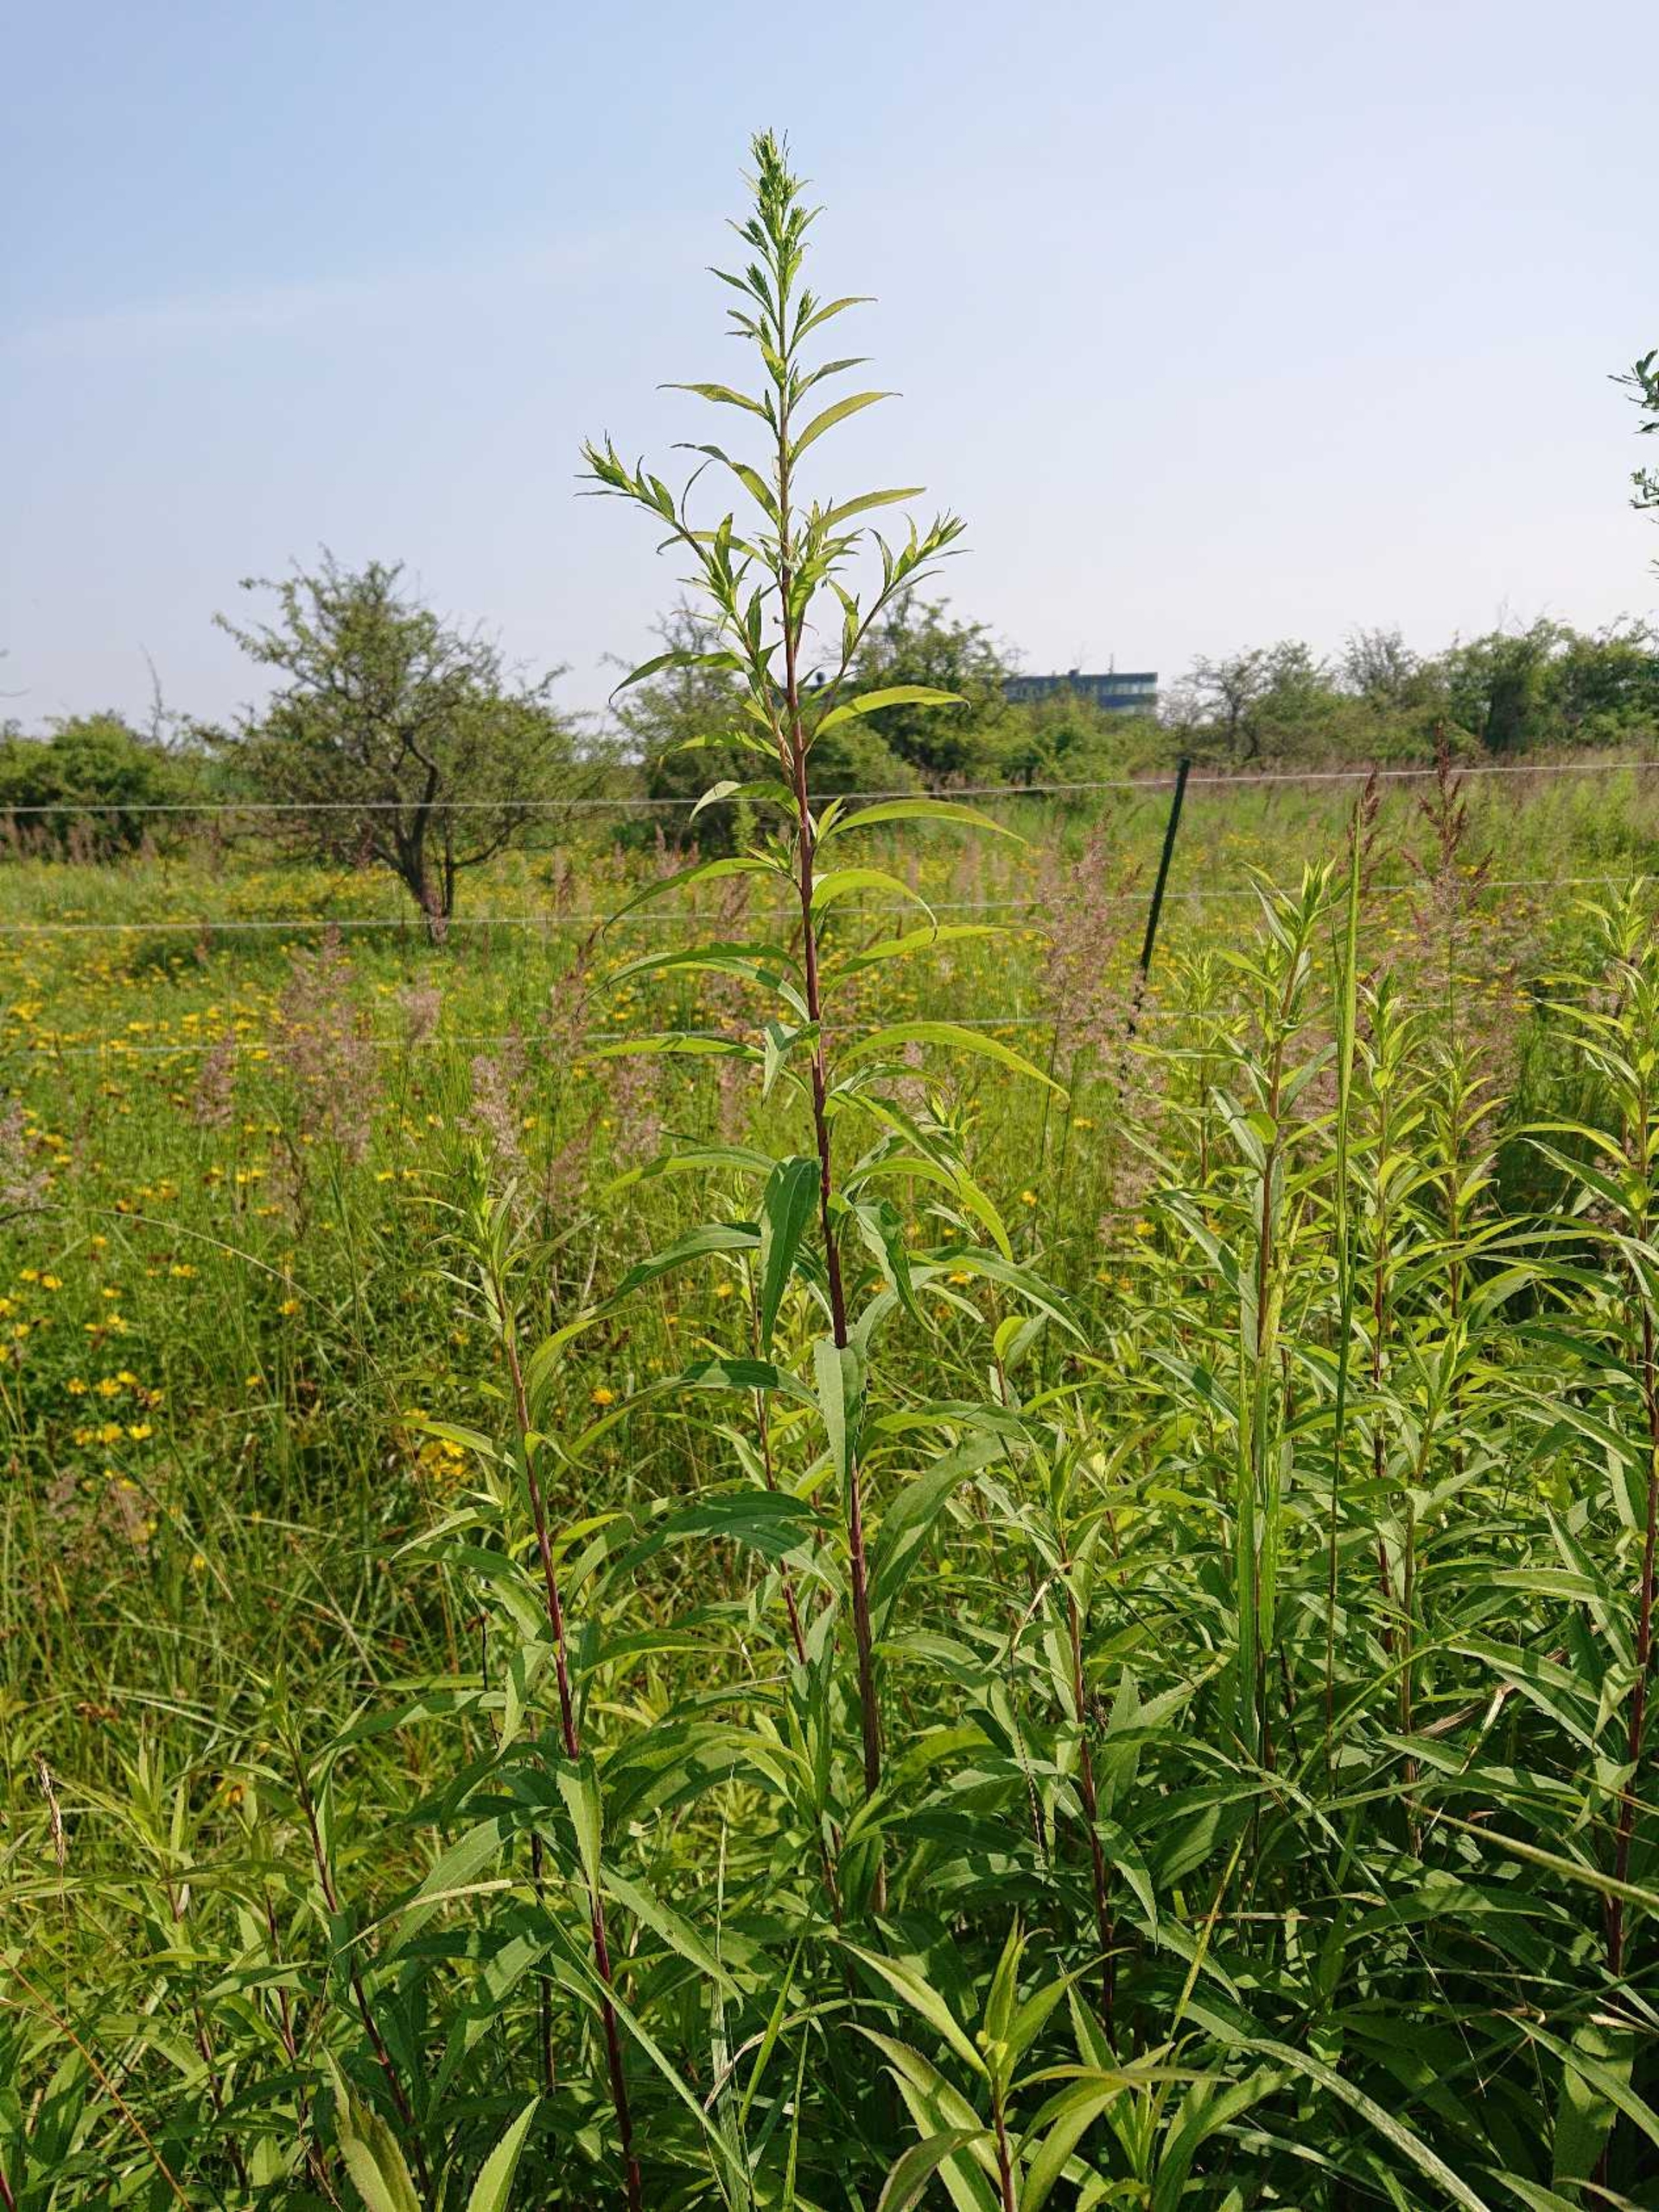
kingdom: Plantae
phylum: Tracheophyta
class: Magnoliopsida
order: Asterales
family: Asteraceae
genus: Solidago
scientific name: Solidago gigantea
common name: Sildig gyldenris
